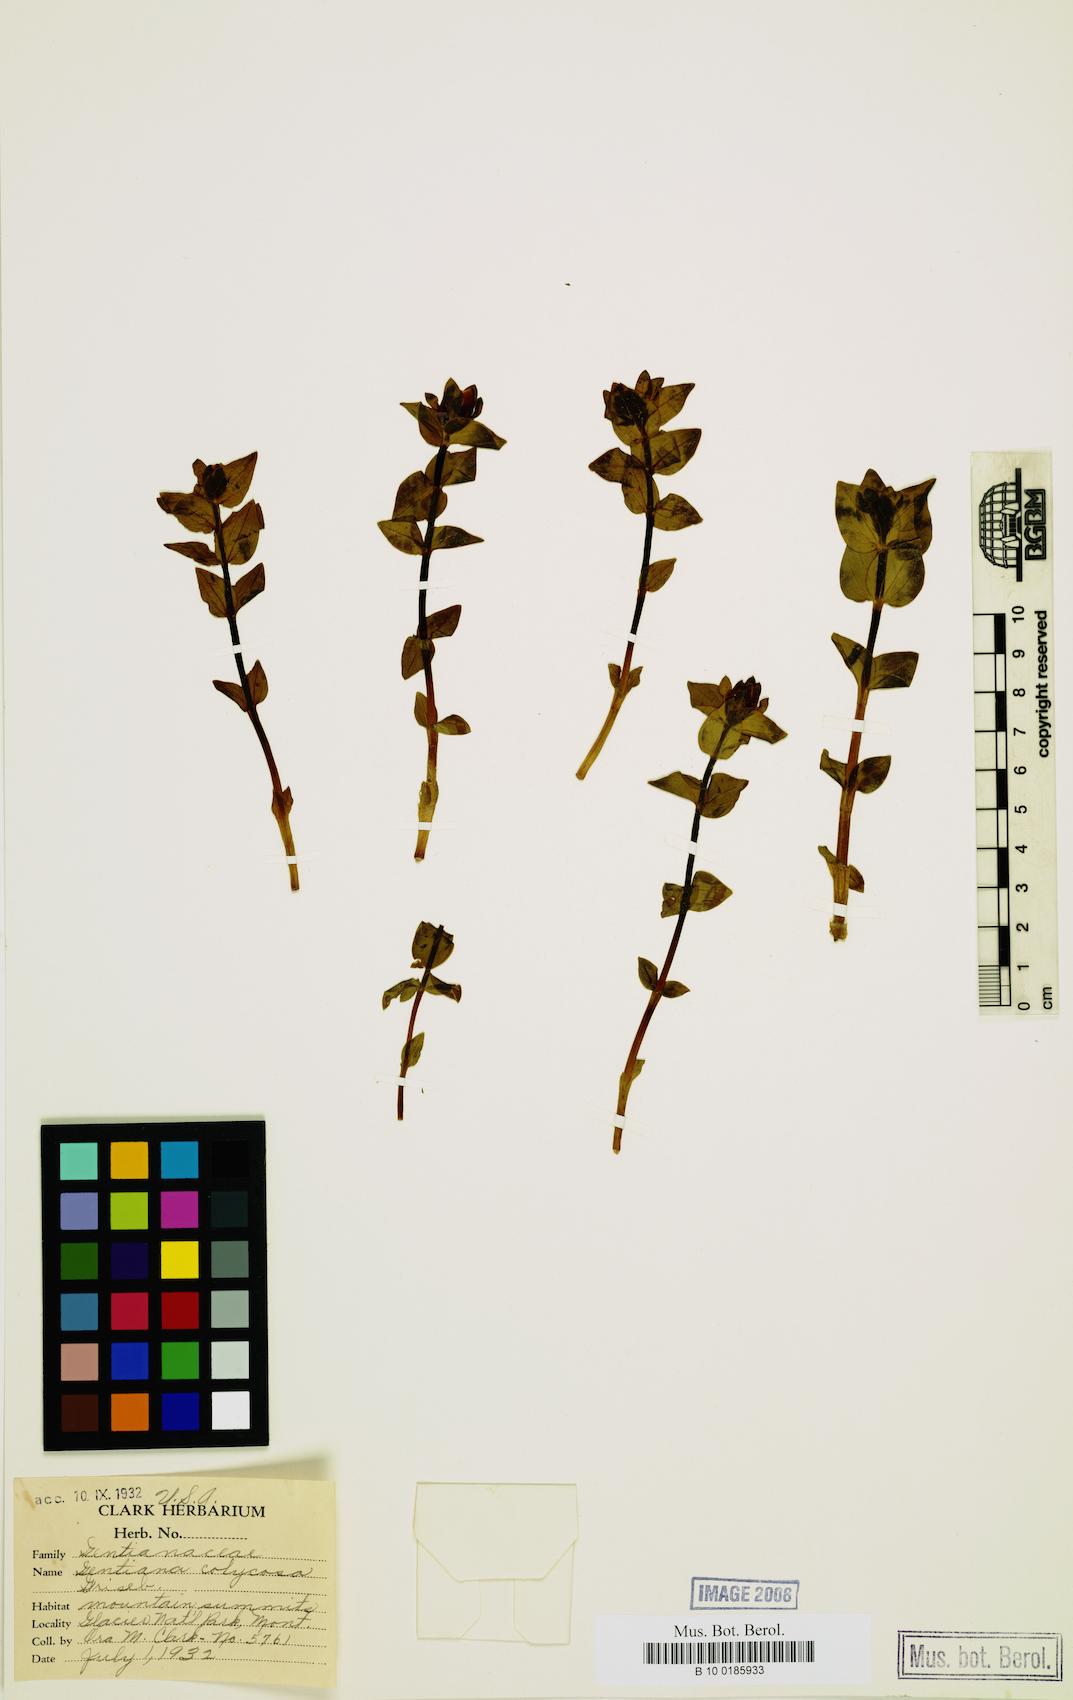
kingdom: Plantae
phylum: Tracheophyta
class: Magnoliopsida
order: Gentianales
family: Gentianaceae
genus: Gentiana
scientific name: Gentiana calycosa
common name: Rainier pleated gentian
